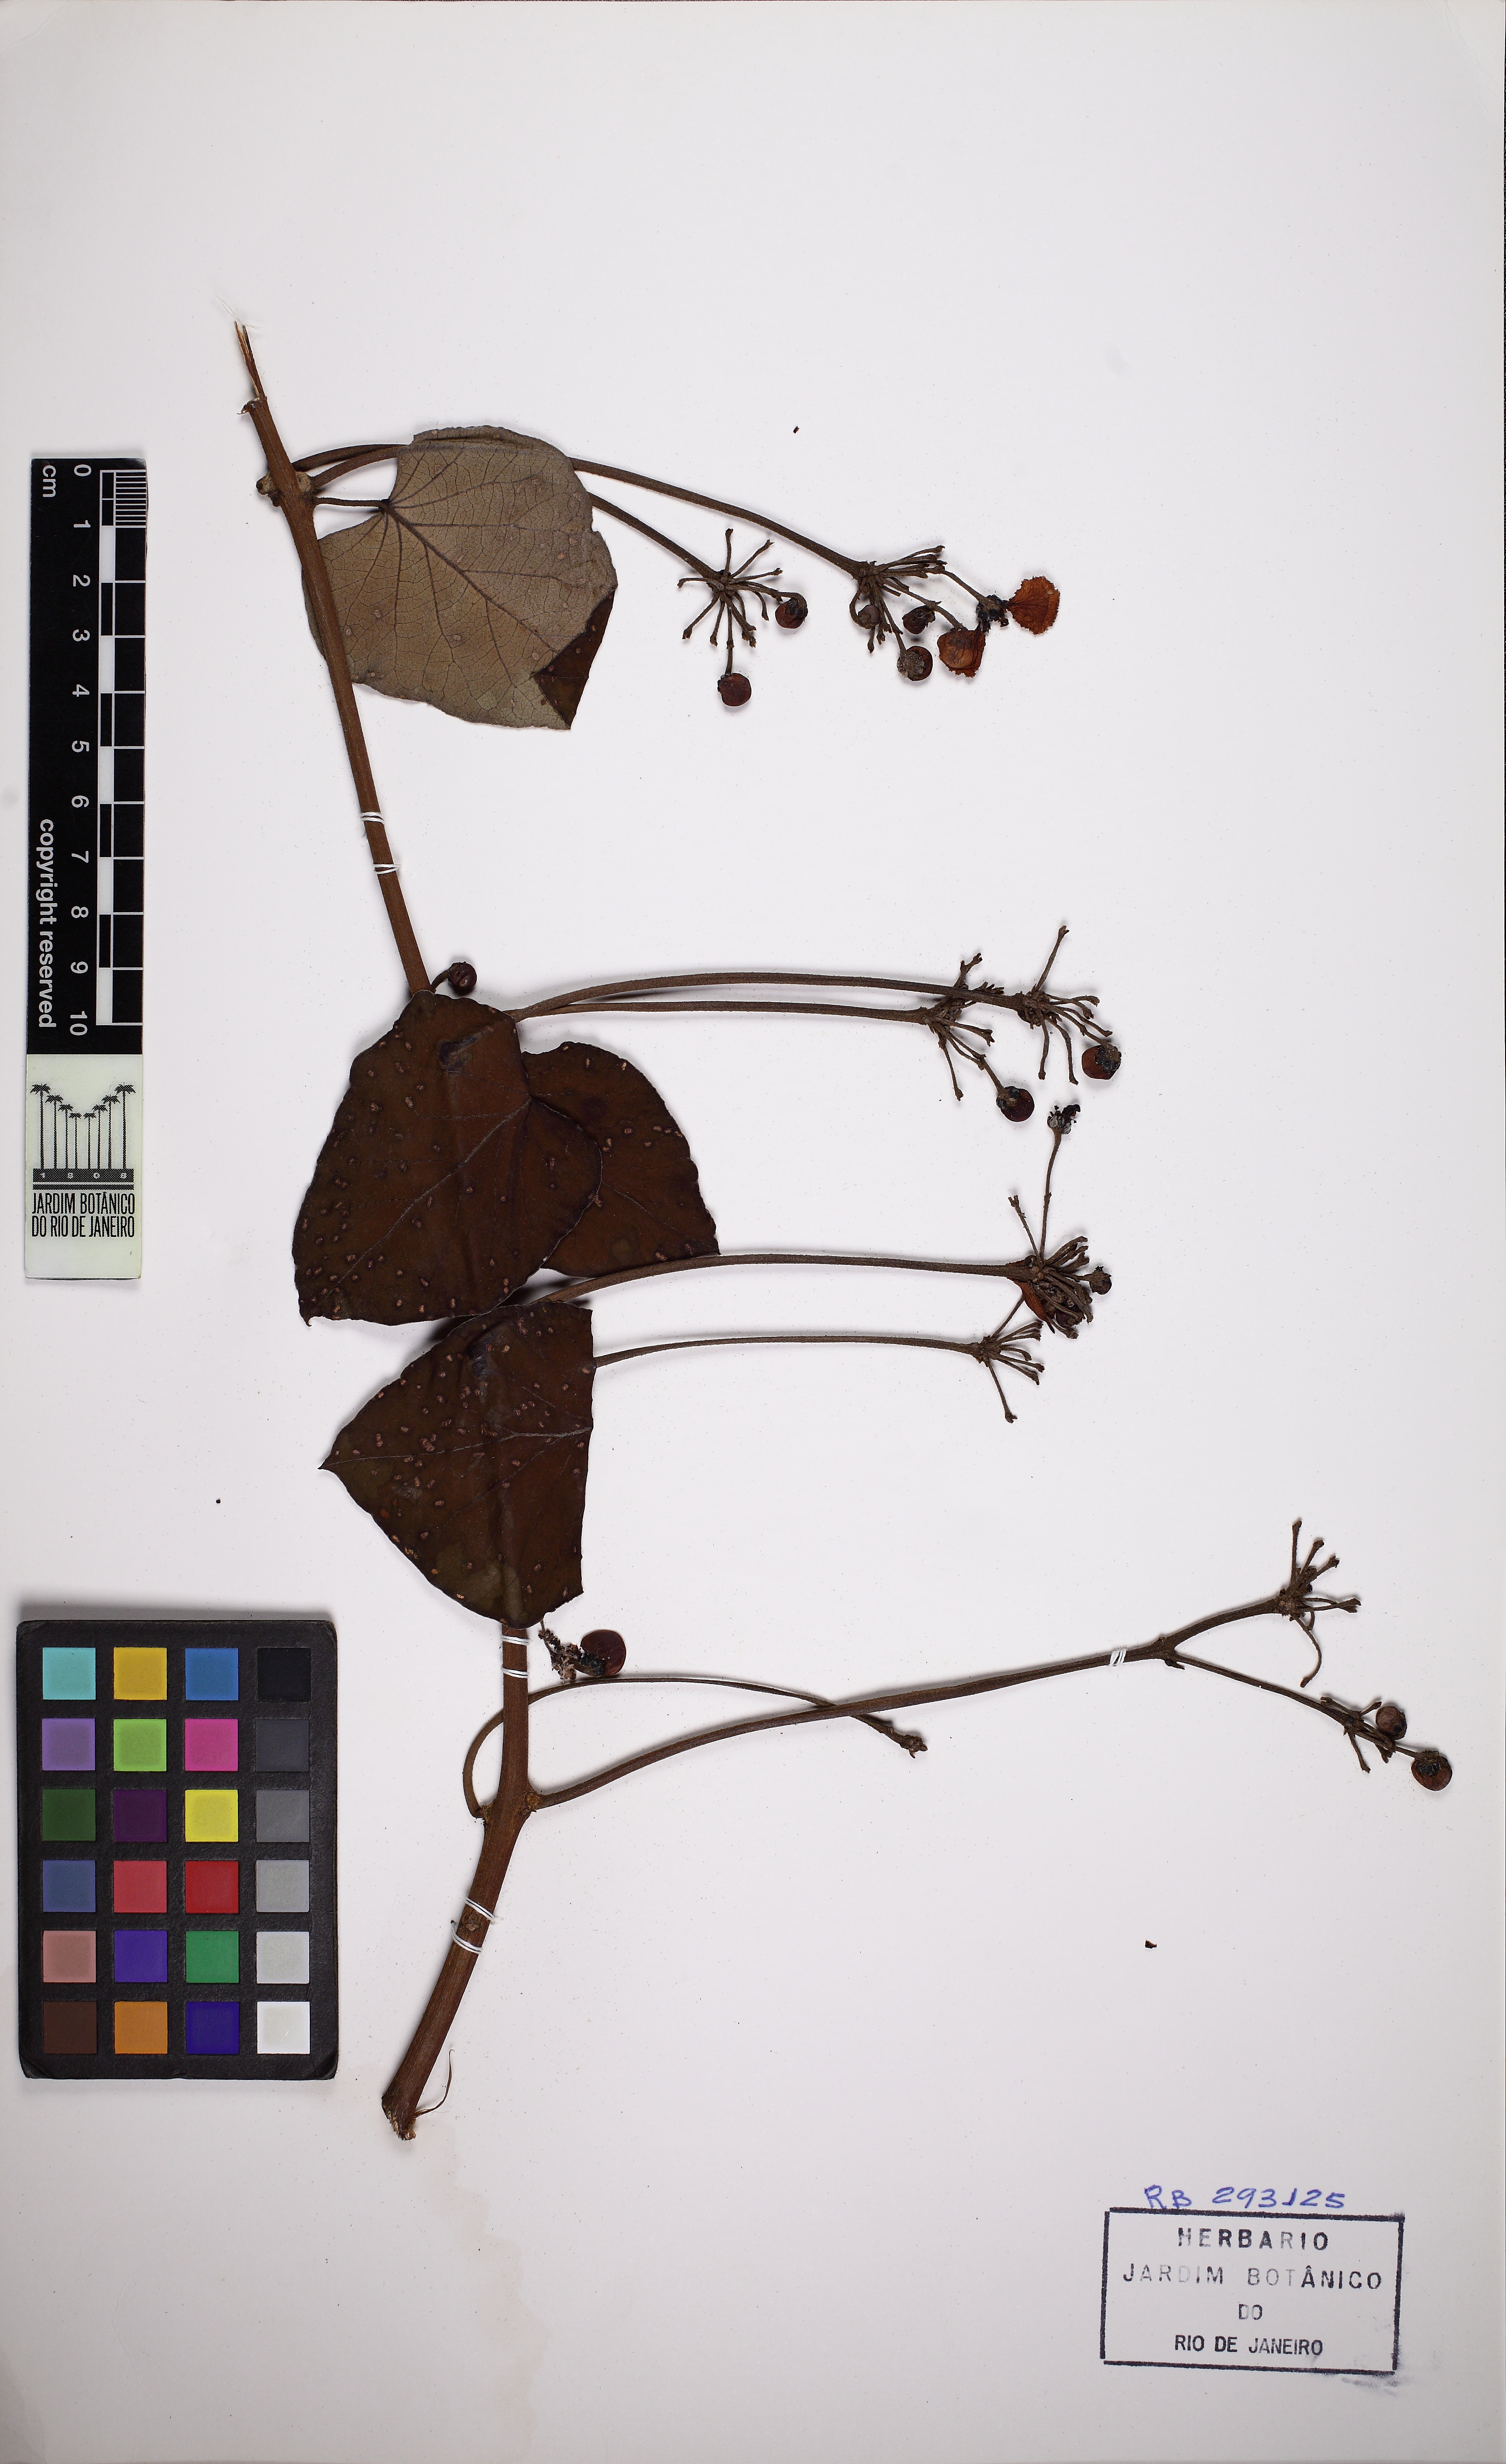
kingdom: Plantae
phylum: Tracheophyta
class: Magnoliopsida
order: Malpighiales
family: Malpighiaceae
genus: Stigmaphyllon
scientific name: Stigmaphyllon tomentosum
